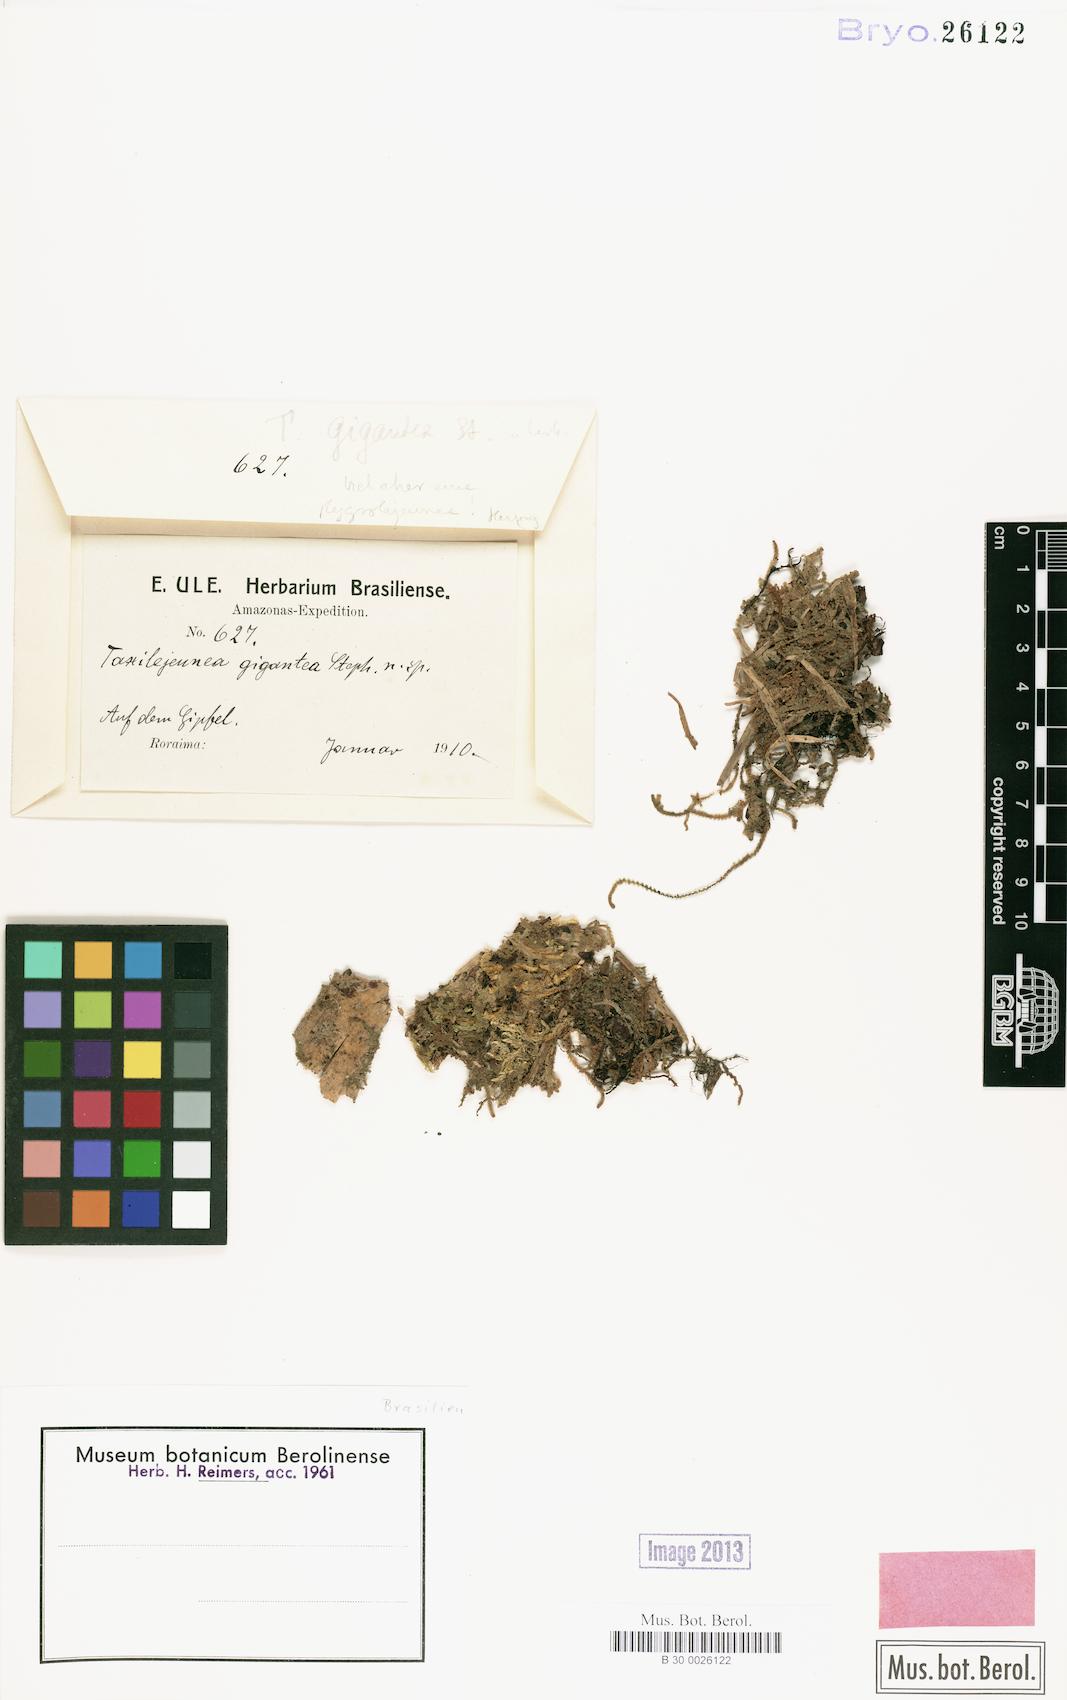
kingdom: Plantae
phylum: Marchantiophyta
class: Jungermanniopsida
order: Porellales
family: Lejeuneaceae
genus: Taxilejeunea
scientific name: Taxilejeunea
